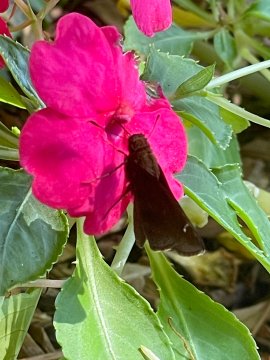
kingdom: Animalia
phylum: Arthropoda
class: Insecta
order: Lepidoptera
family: Hesperiidae
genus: Lerema
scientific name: Lerema accius
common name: Clouded Skipper
